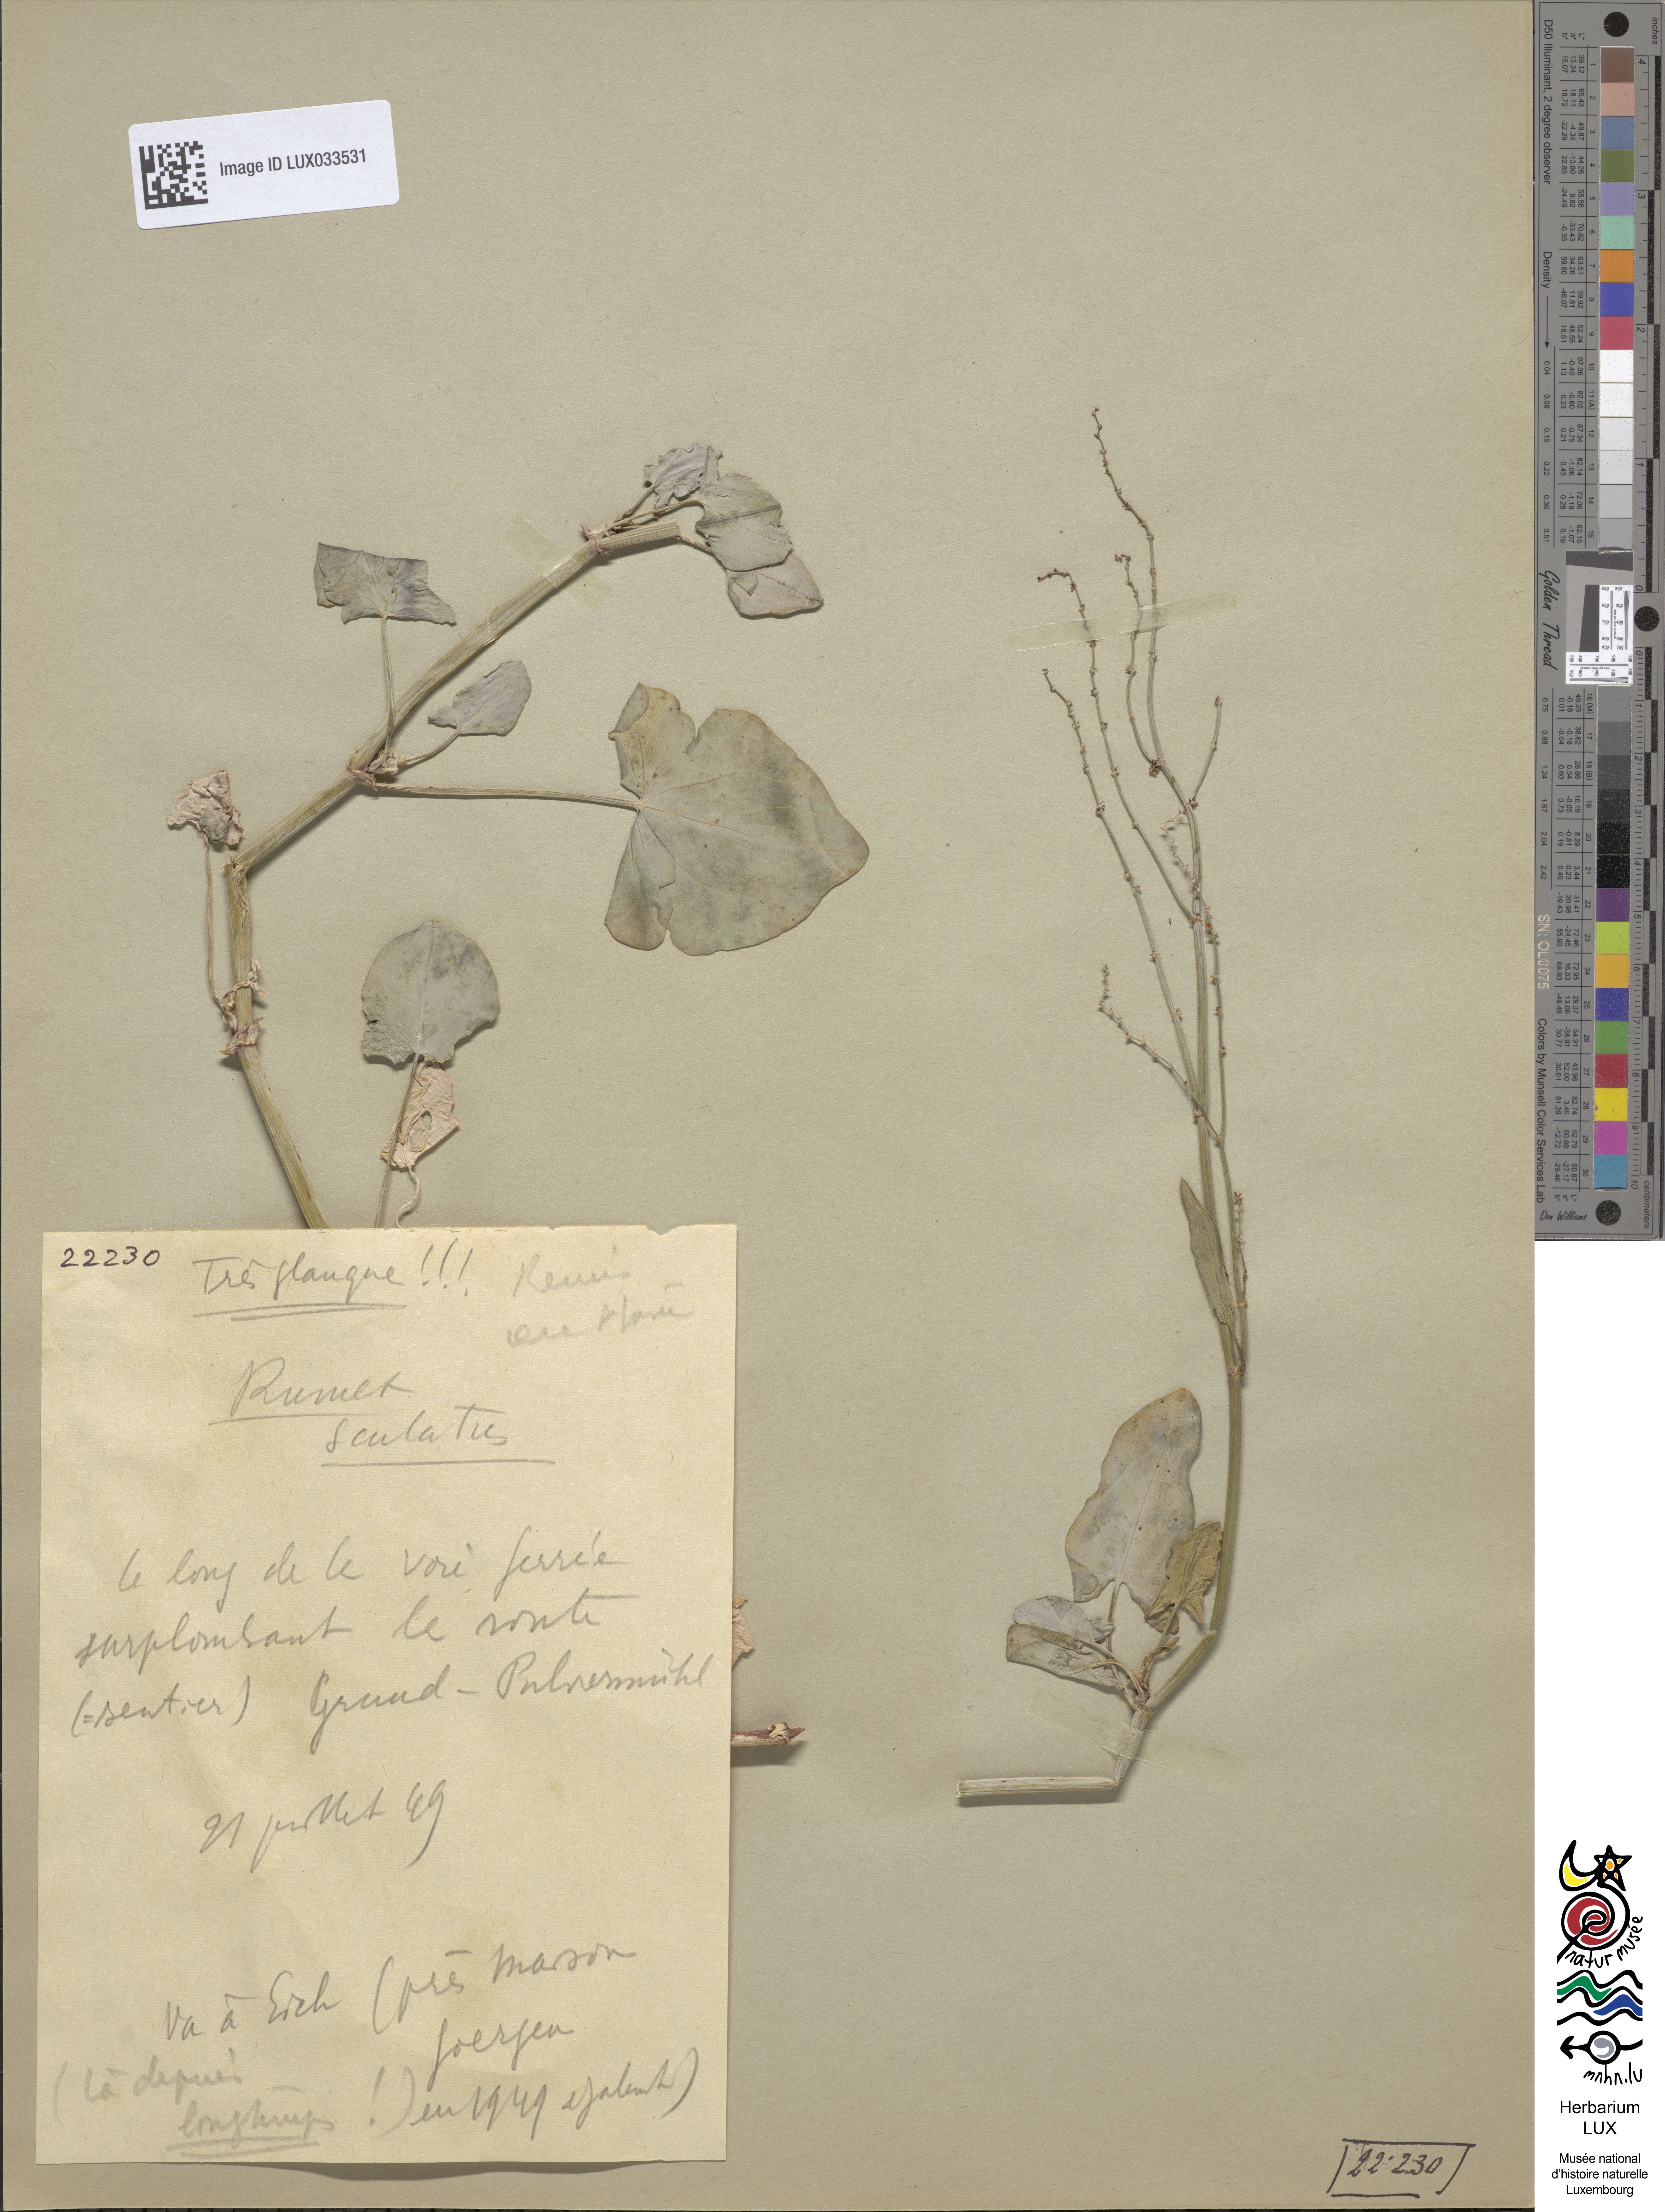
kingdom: Plantae
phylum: Tracheophyta
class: Magnoliopsida
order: Caryophyllales
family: Polygonaceae
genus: Rumex
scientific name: Rumex scutatus
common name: French sorrel
